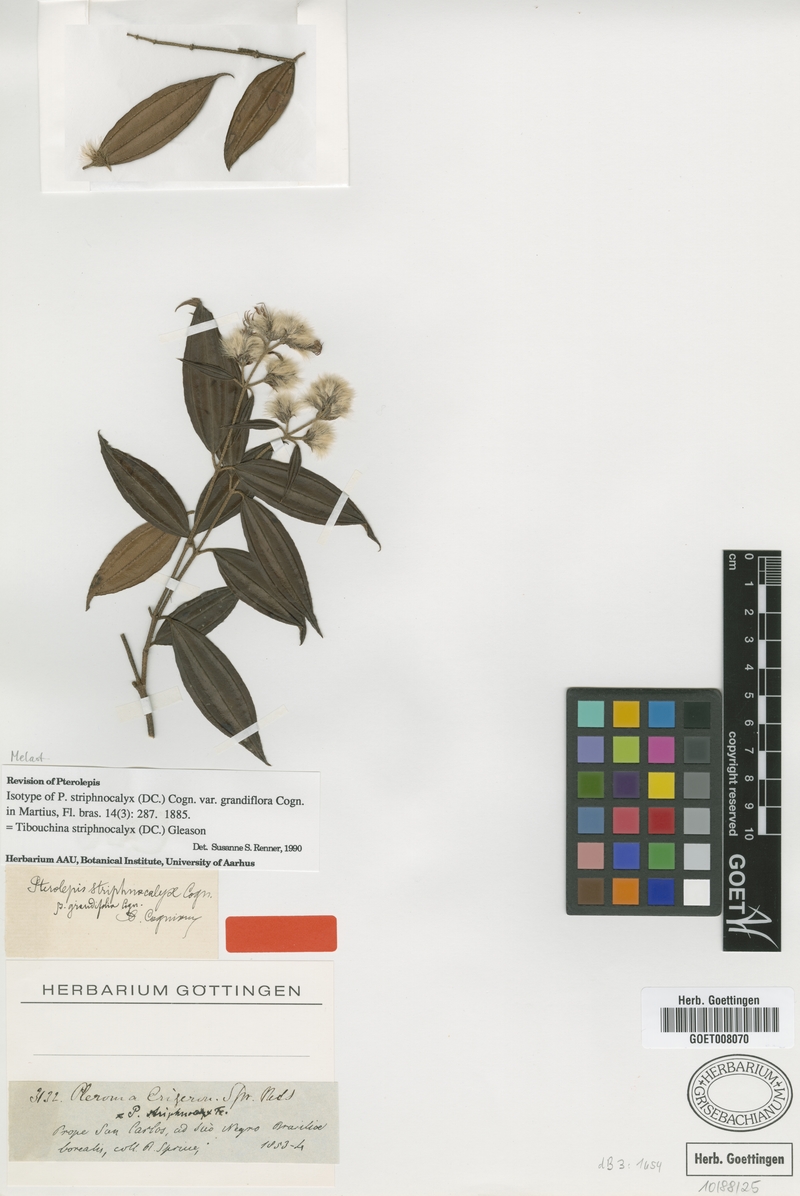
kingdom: Plantae
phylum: Tracheophyta
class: Magnoliopsida
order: Myrtales
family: Melastomataceae
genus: Chaetogastra
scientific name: Chaetogastra striphnocalyx
